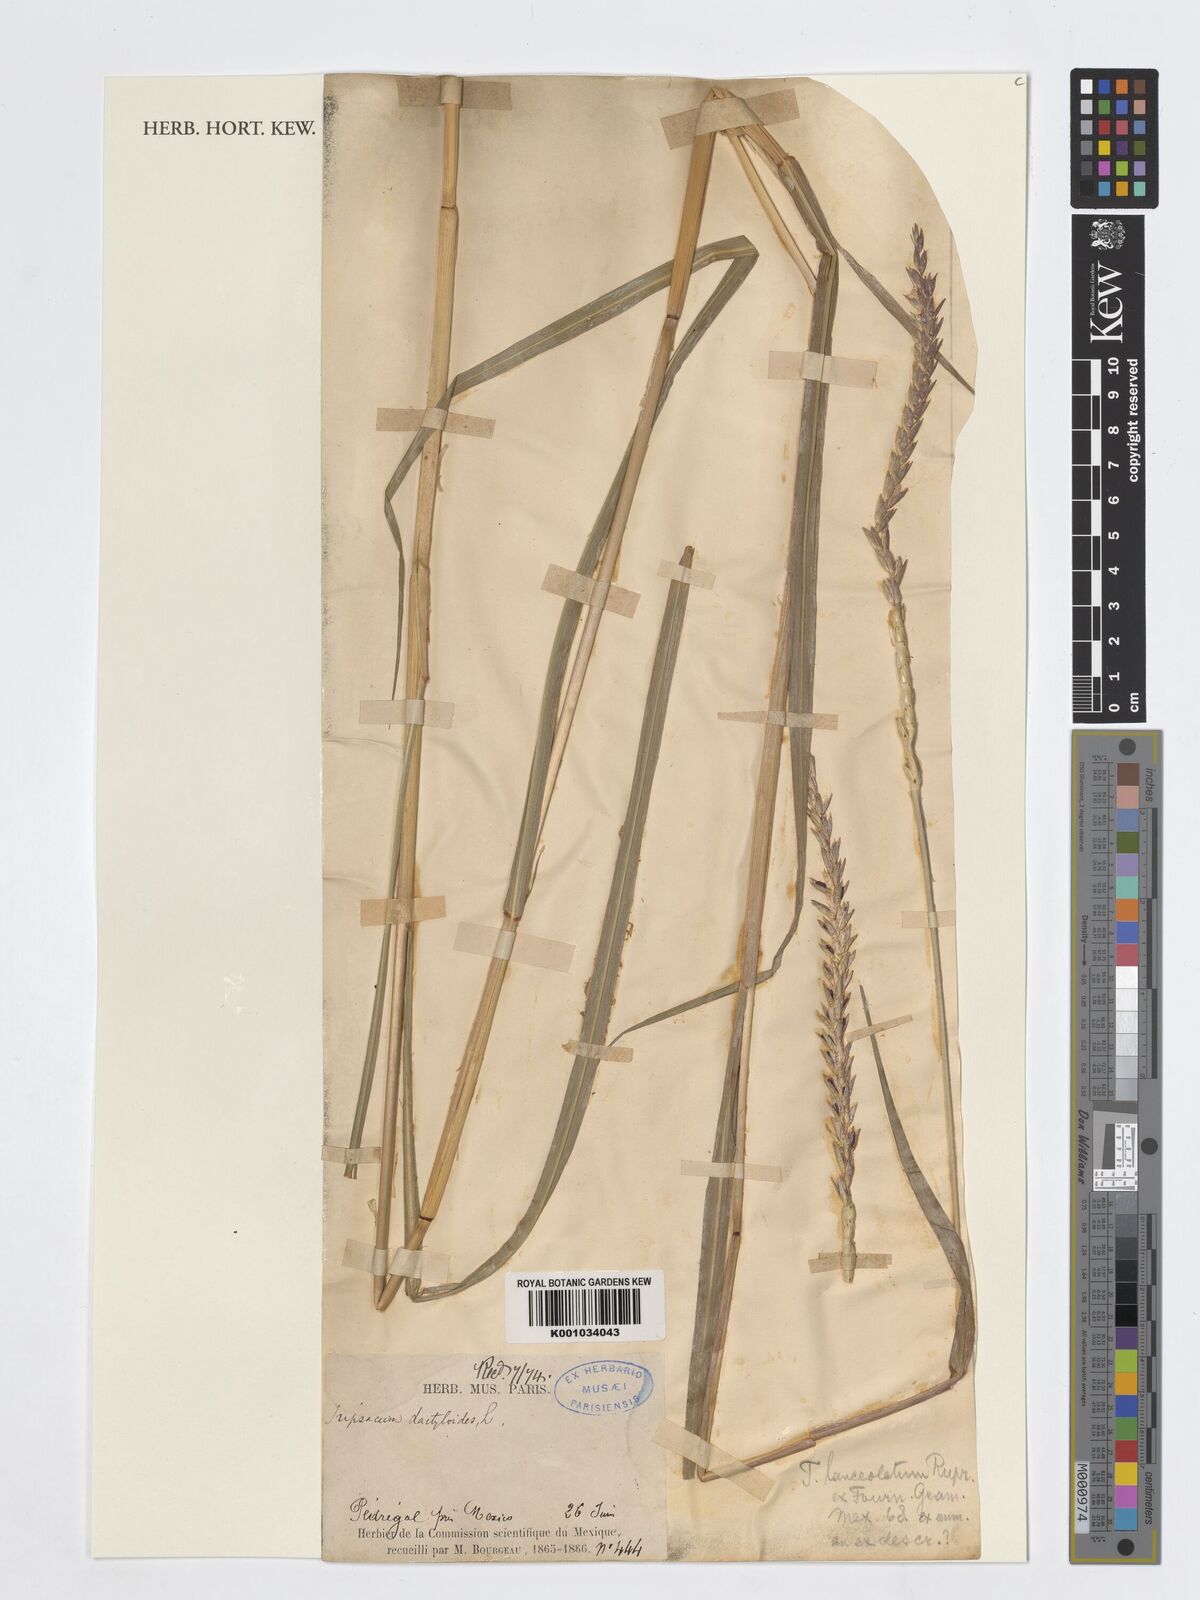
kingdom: Plantae
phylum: Tracheophyta
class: Liliopsida
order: Poales
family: Poaceae
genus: Tripsacum
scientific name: Tripsacum lanceolatum
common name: Mexican gama grass
